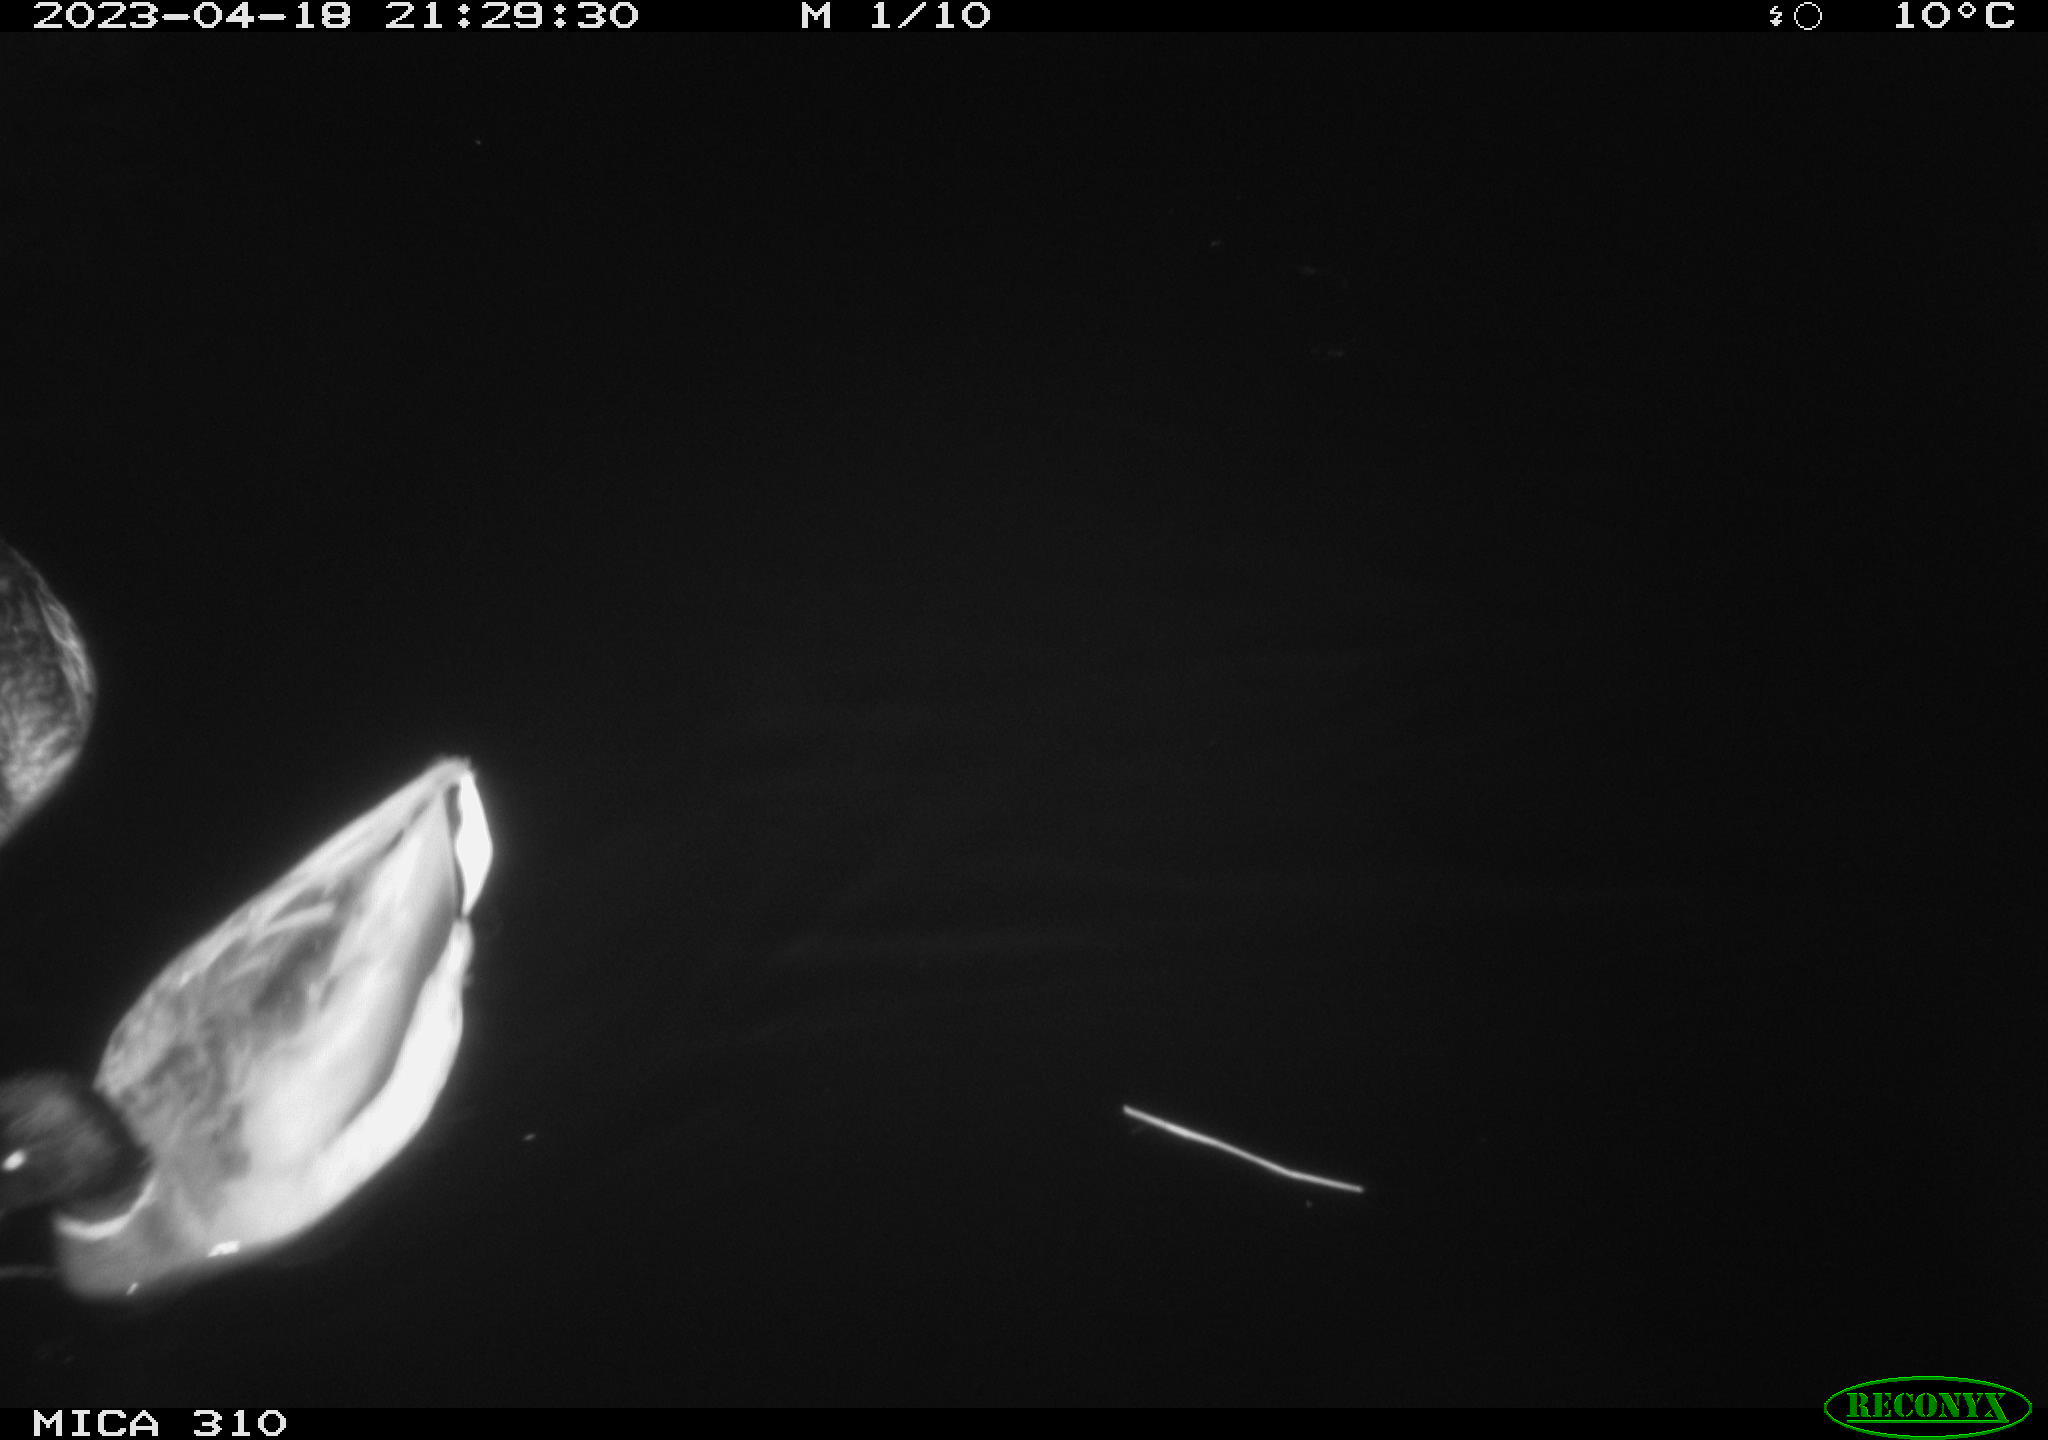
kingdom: Animalia
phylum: Chordata
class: Aves
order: Anseriformes
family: Anatidae
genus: Anas
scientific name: Anas
